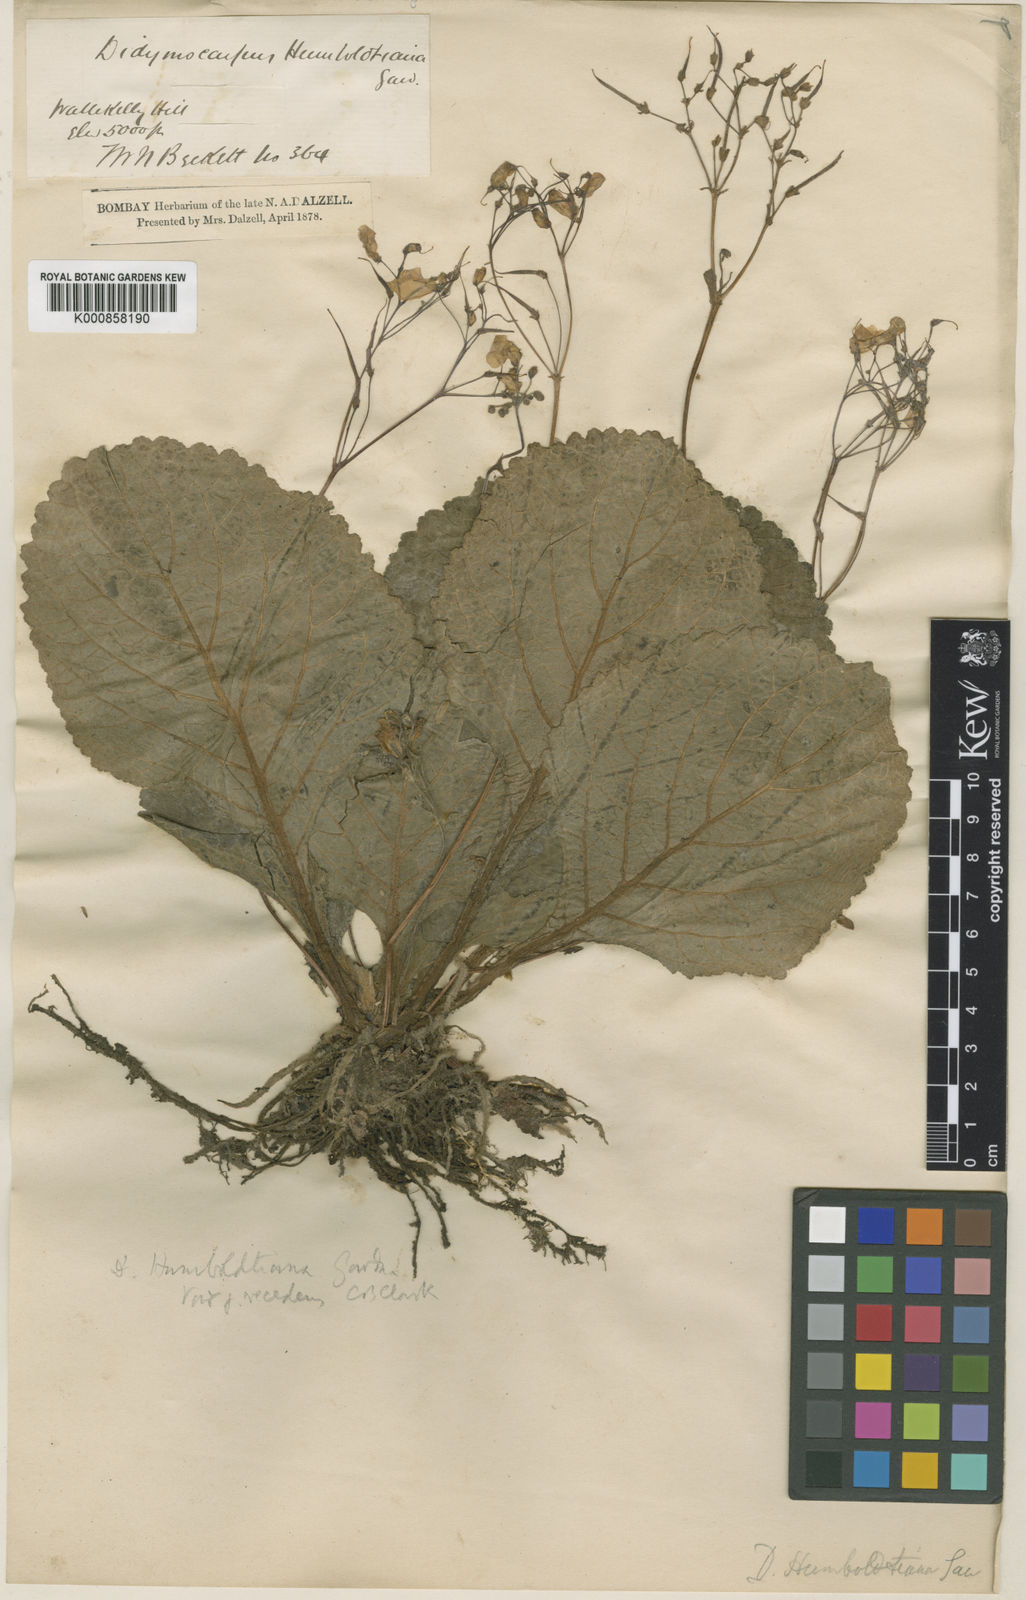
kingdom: Plantae
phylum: Tracheophyta
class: Magnoliopsida
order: Lamiales
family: Gesneriaceae
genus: Henckelia
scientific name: Henckelia humboldtiana
